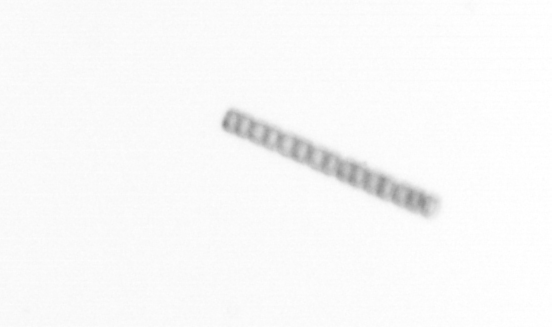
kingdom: Chromista
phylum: Ochrophyta
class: Bacillariophyceae
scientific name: Bacillariophyceae
